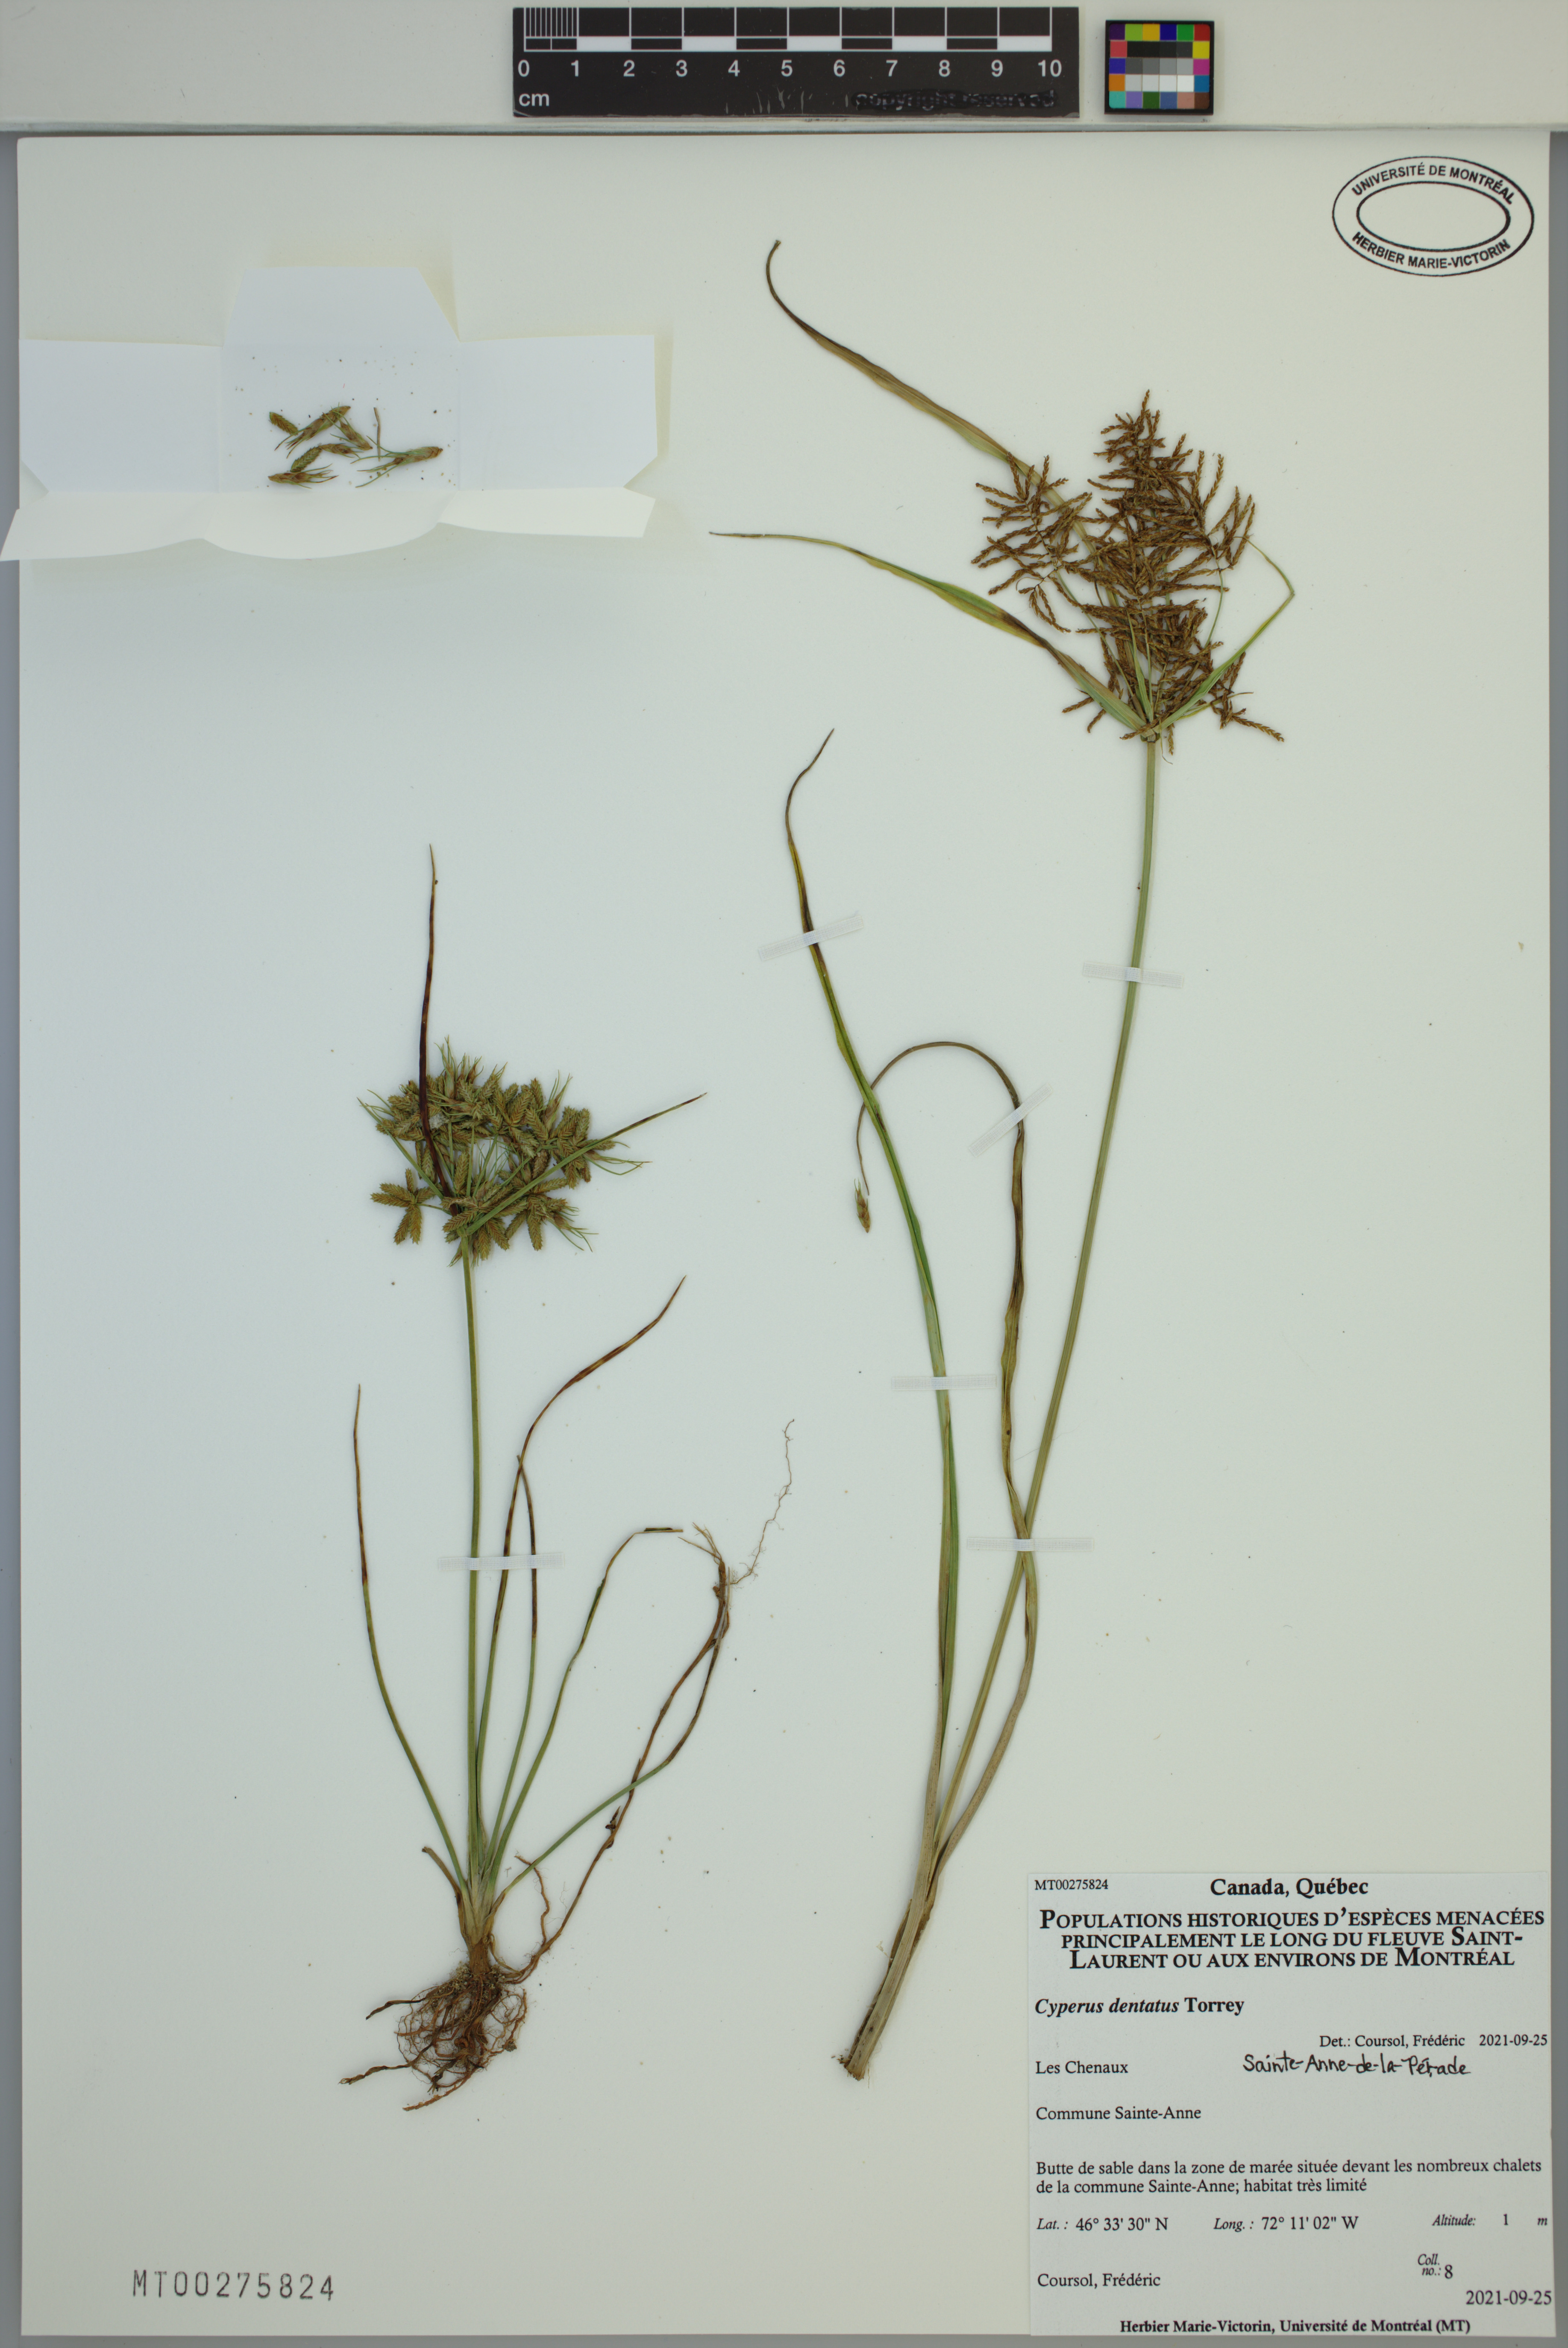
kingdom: Plantae
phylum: Tracheophyta
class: Liliopsida
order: Poales
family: Cyperaceae
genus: Cyperus
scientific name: Cyperus dentatus
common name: Dentate umbrella sedge
